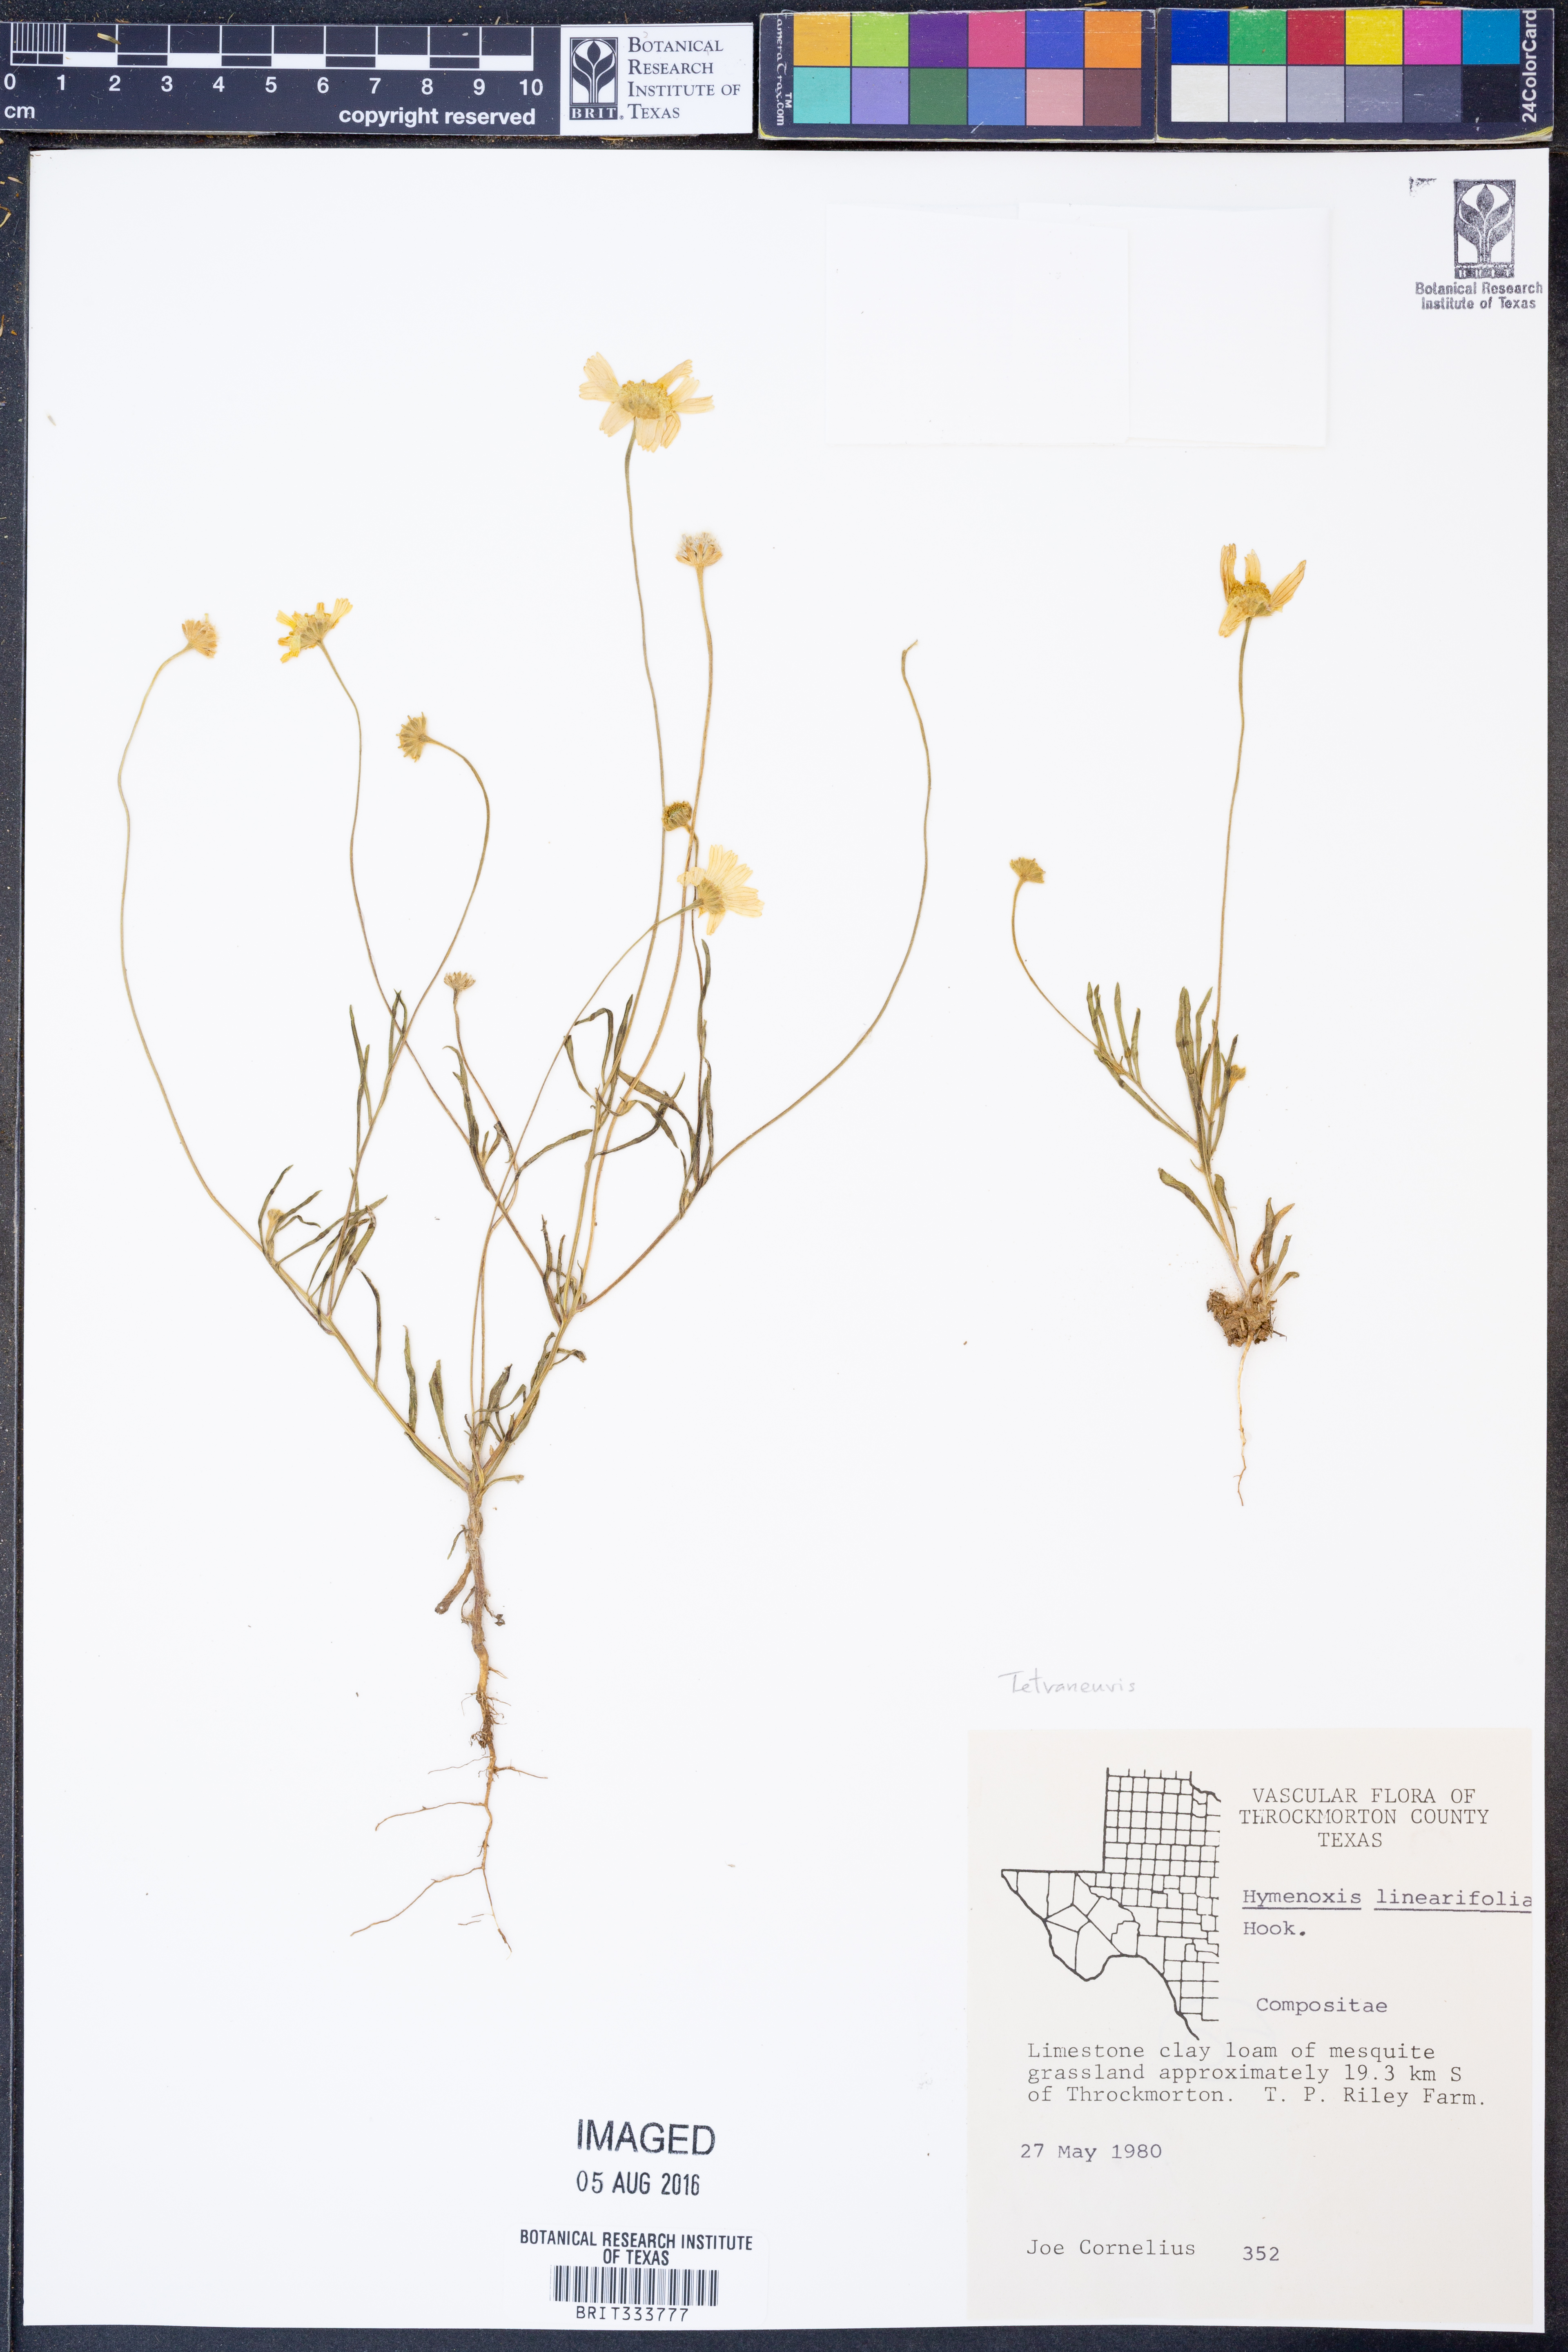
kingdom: Plantae
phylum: Tracheophyta
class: Magnoliopsida
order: Asterales
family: Asteraceae
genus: Tetraneuris
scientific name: Tetraneuris linearifolia
